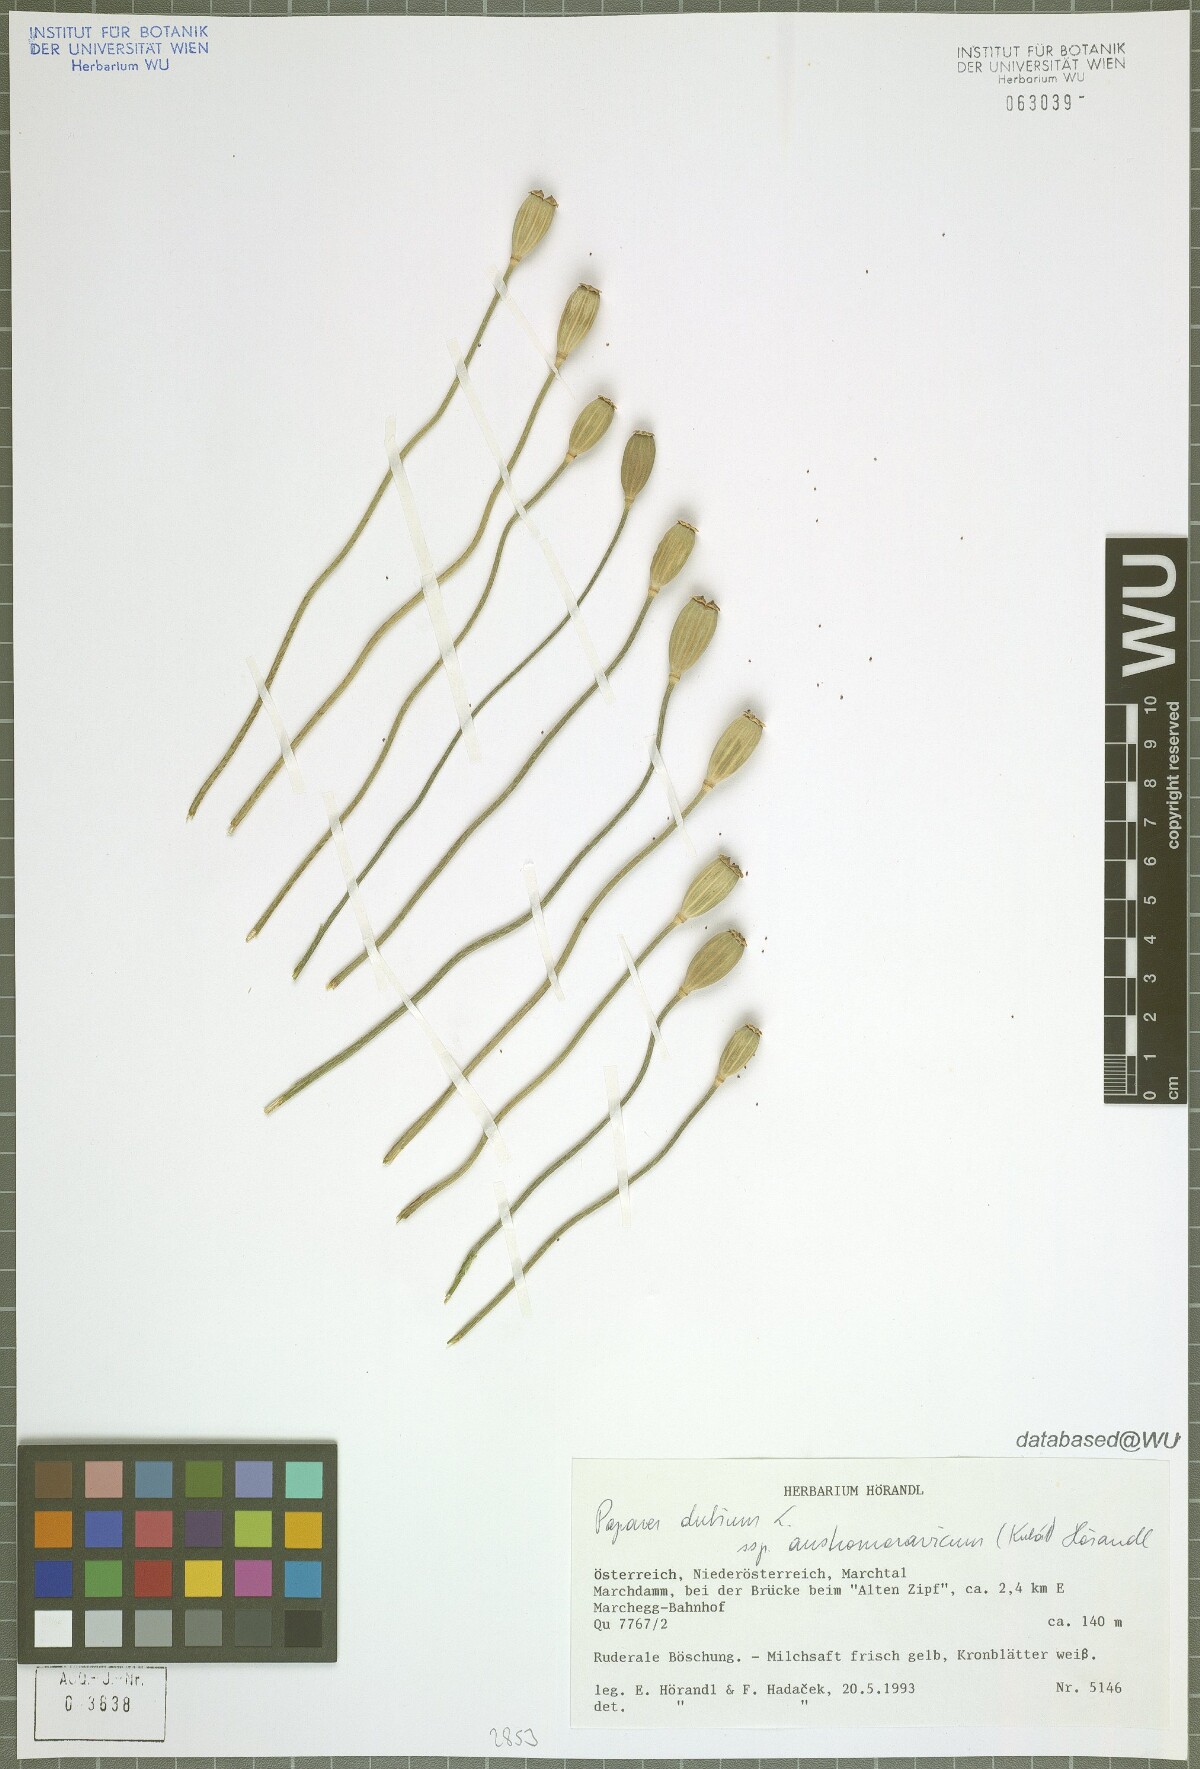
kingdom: Plantae
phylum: Tracheophyta
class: Magnoliopsida
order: Ranunculales
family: Papaveraceae
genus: Papaver
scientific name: Papaver dubium
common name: Long-headed poppy
